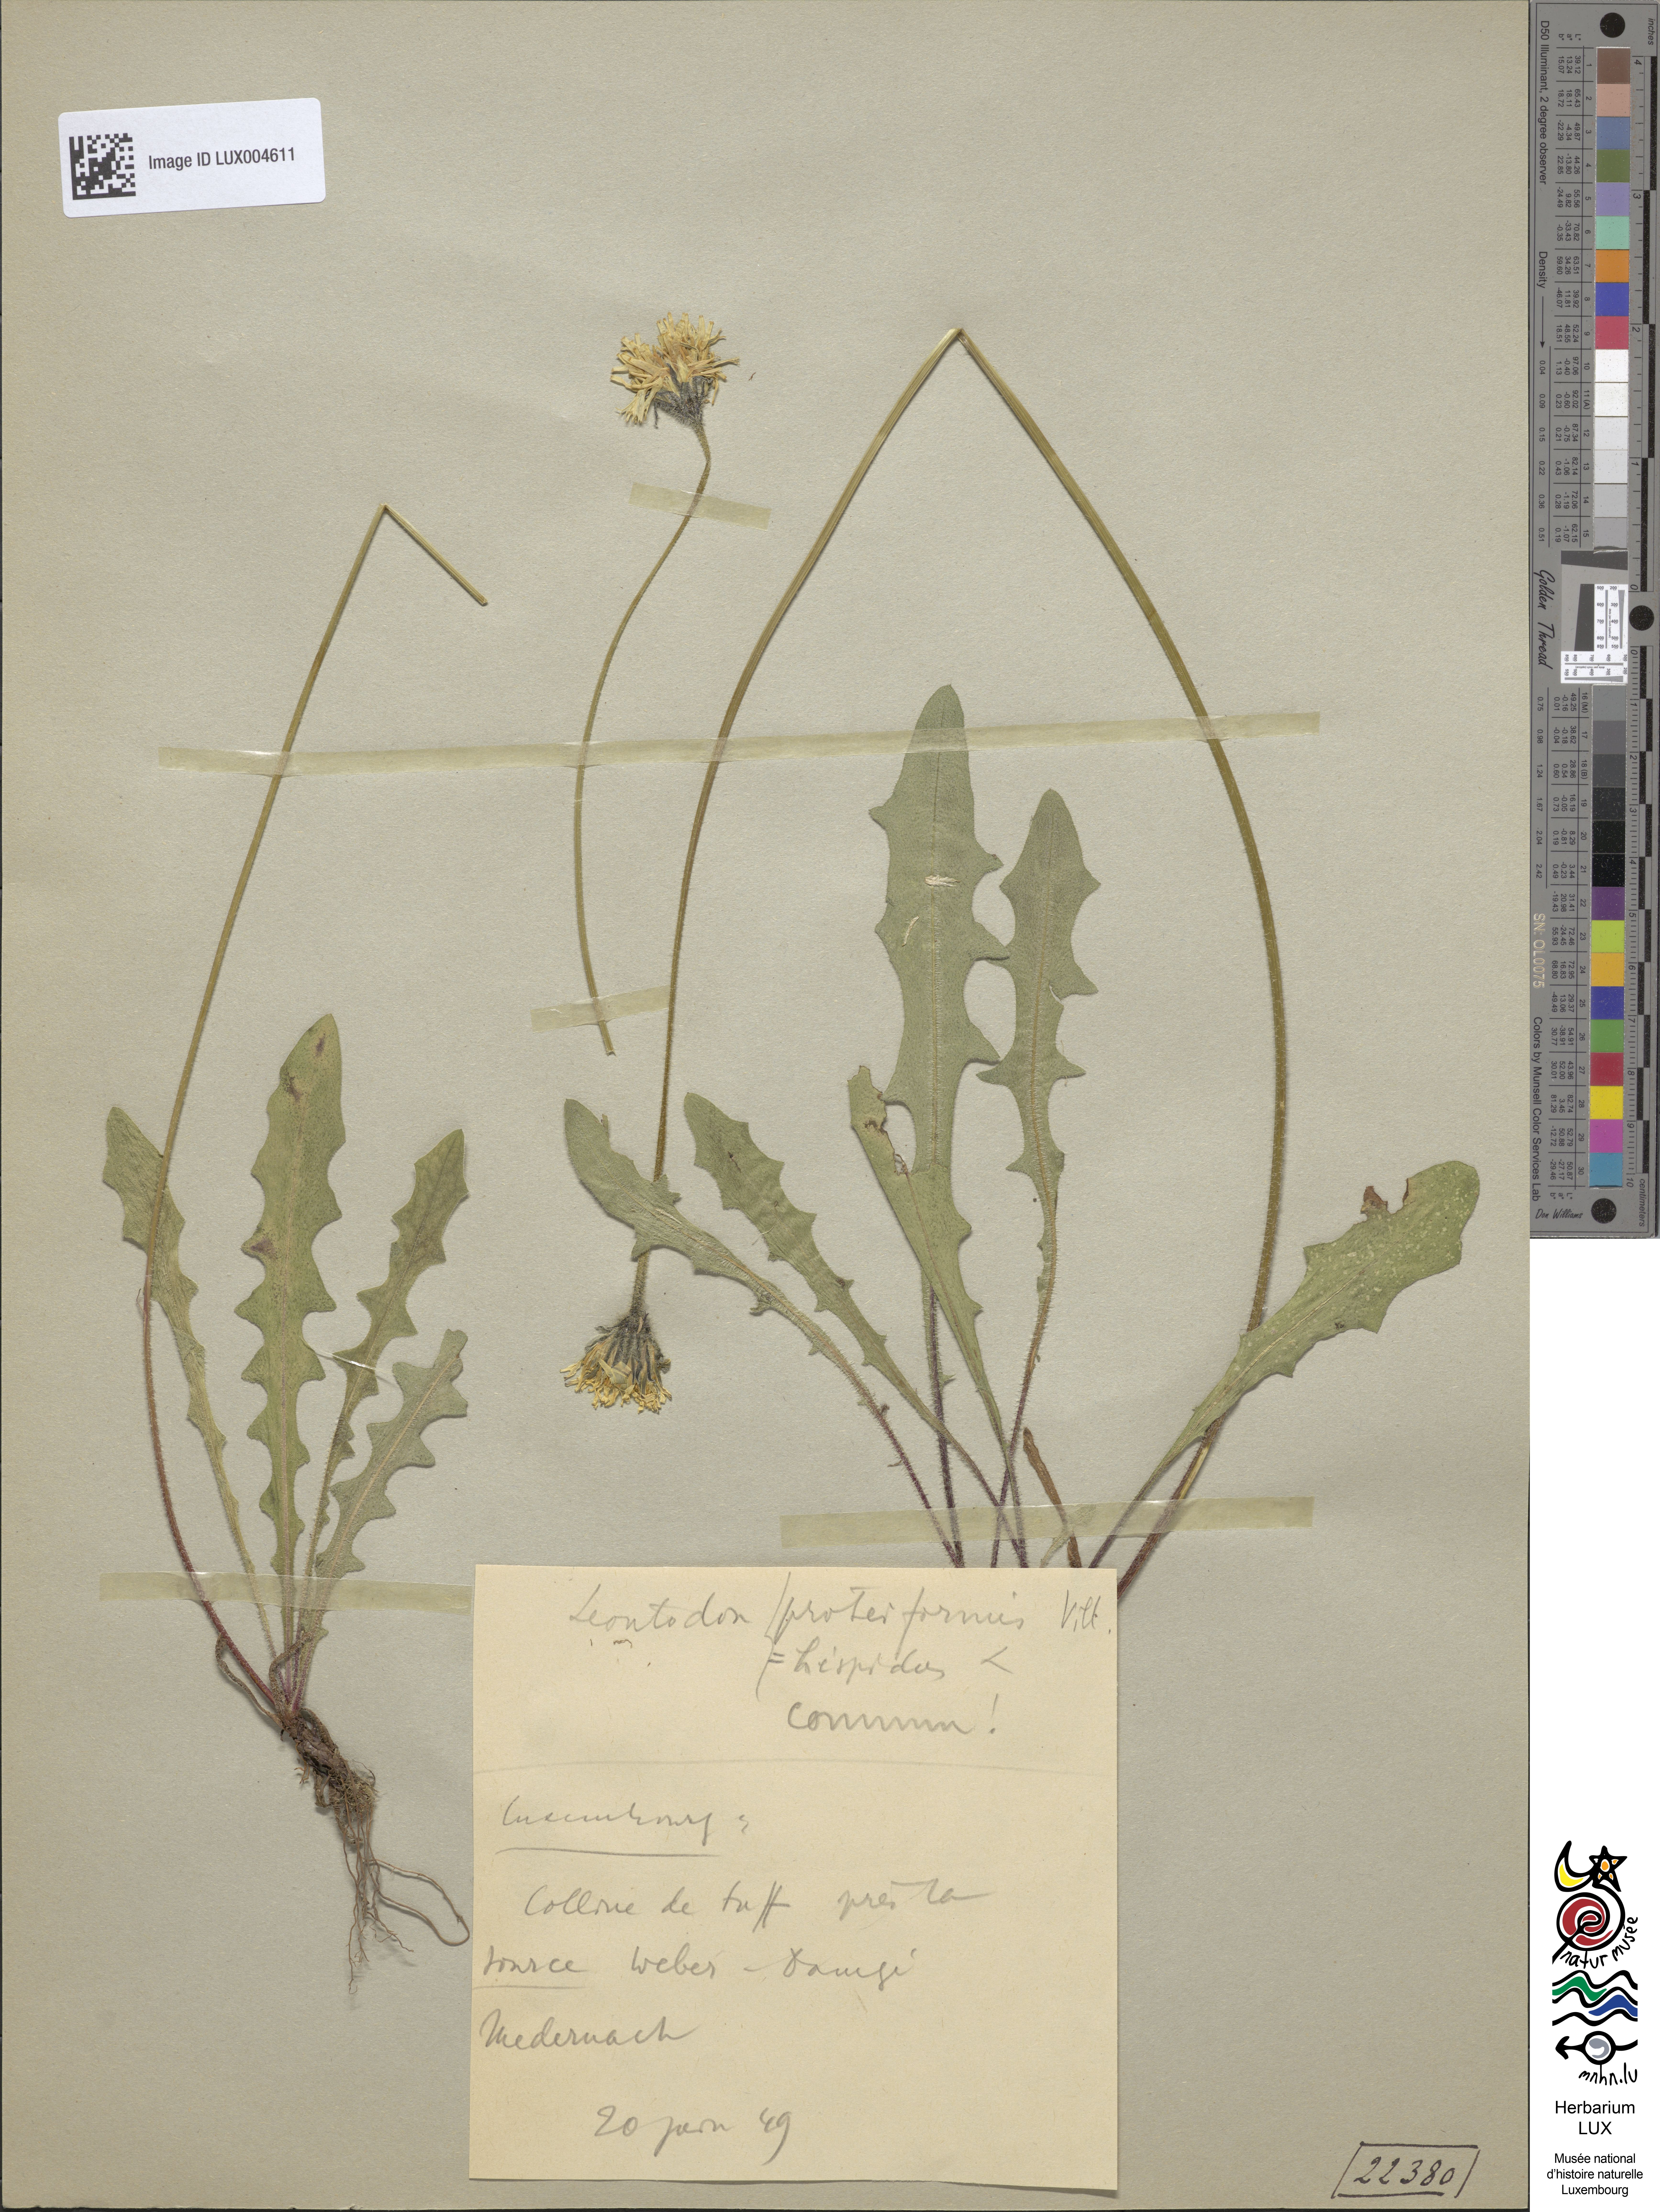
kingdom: Plantae
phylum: Tracheophyta
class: Magnoliopsida
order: Asterales
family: Asteraceae
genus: Leontodon
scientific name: Leontodon hispidus
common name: Rough hawkbit
